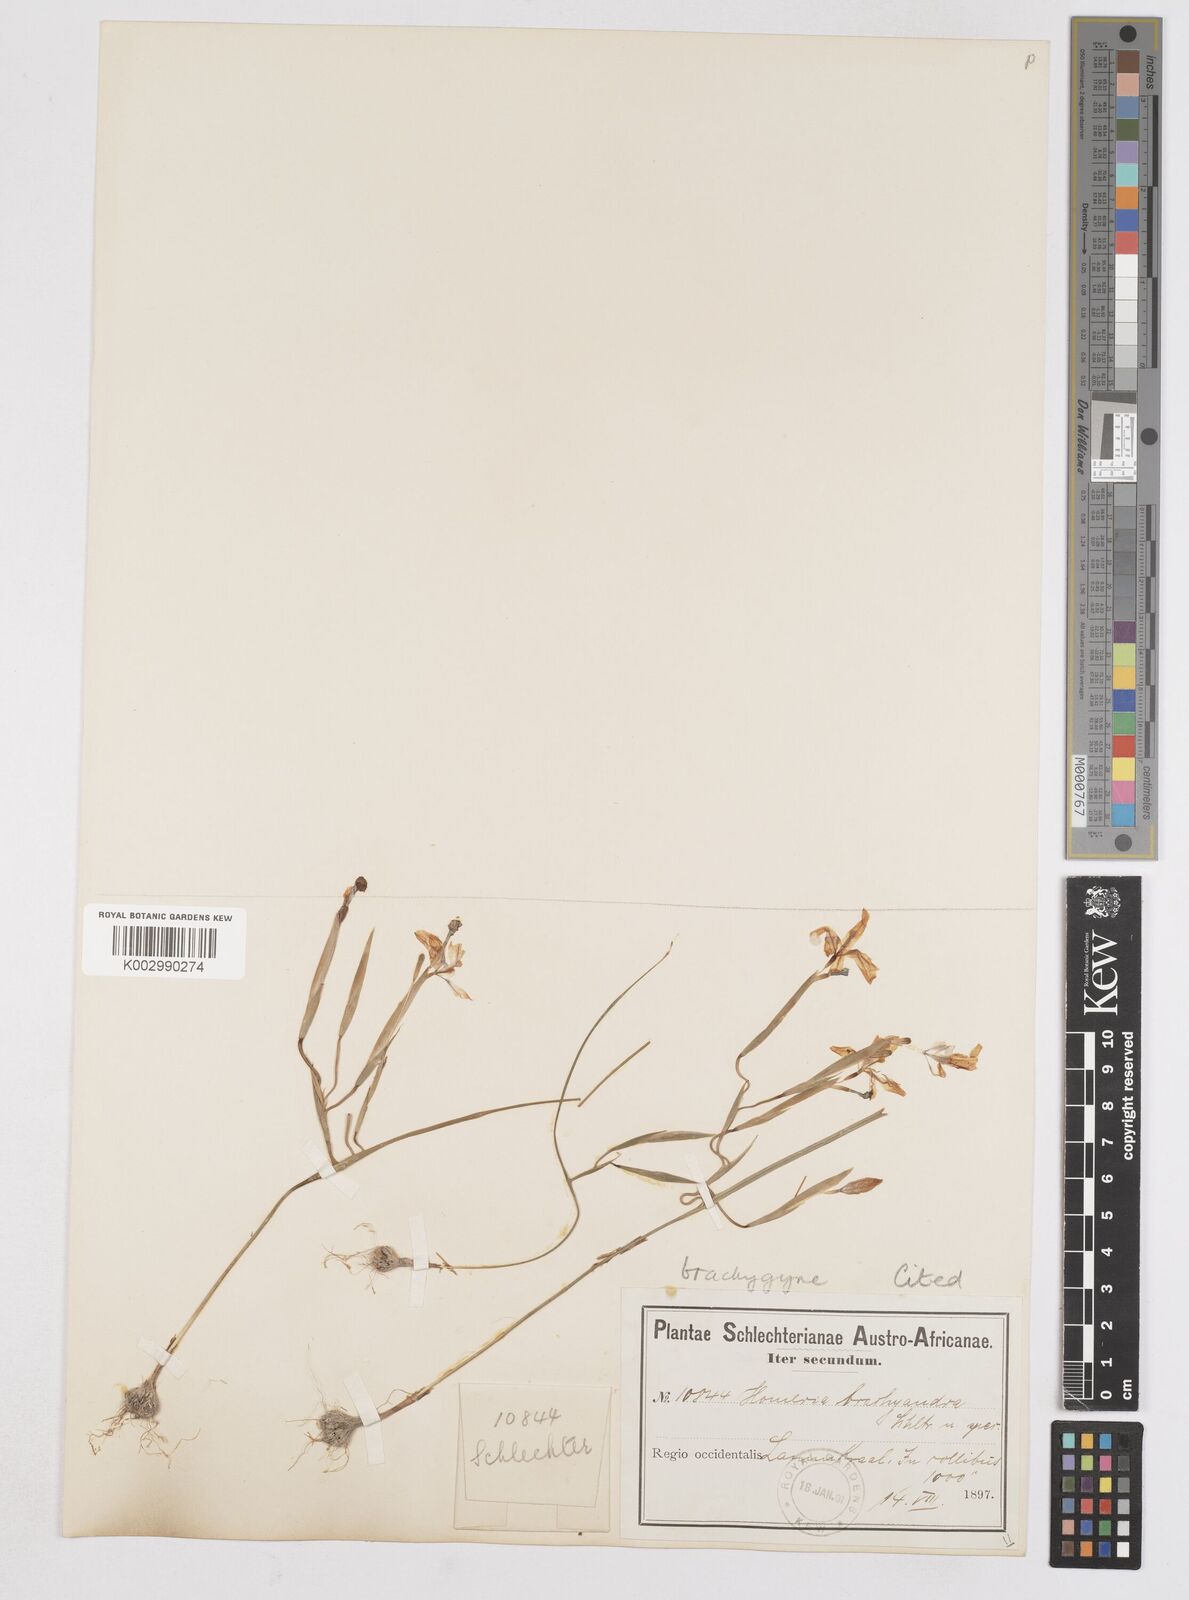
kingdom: Plantae
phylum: Tracheophyta
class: Liliopsida
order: Asparagales
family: Iridaceae
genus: Moraea
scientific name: Moraea brachygyne
